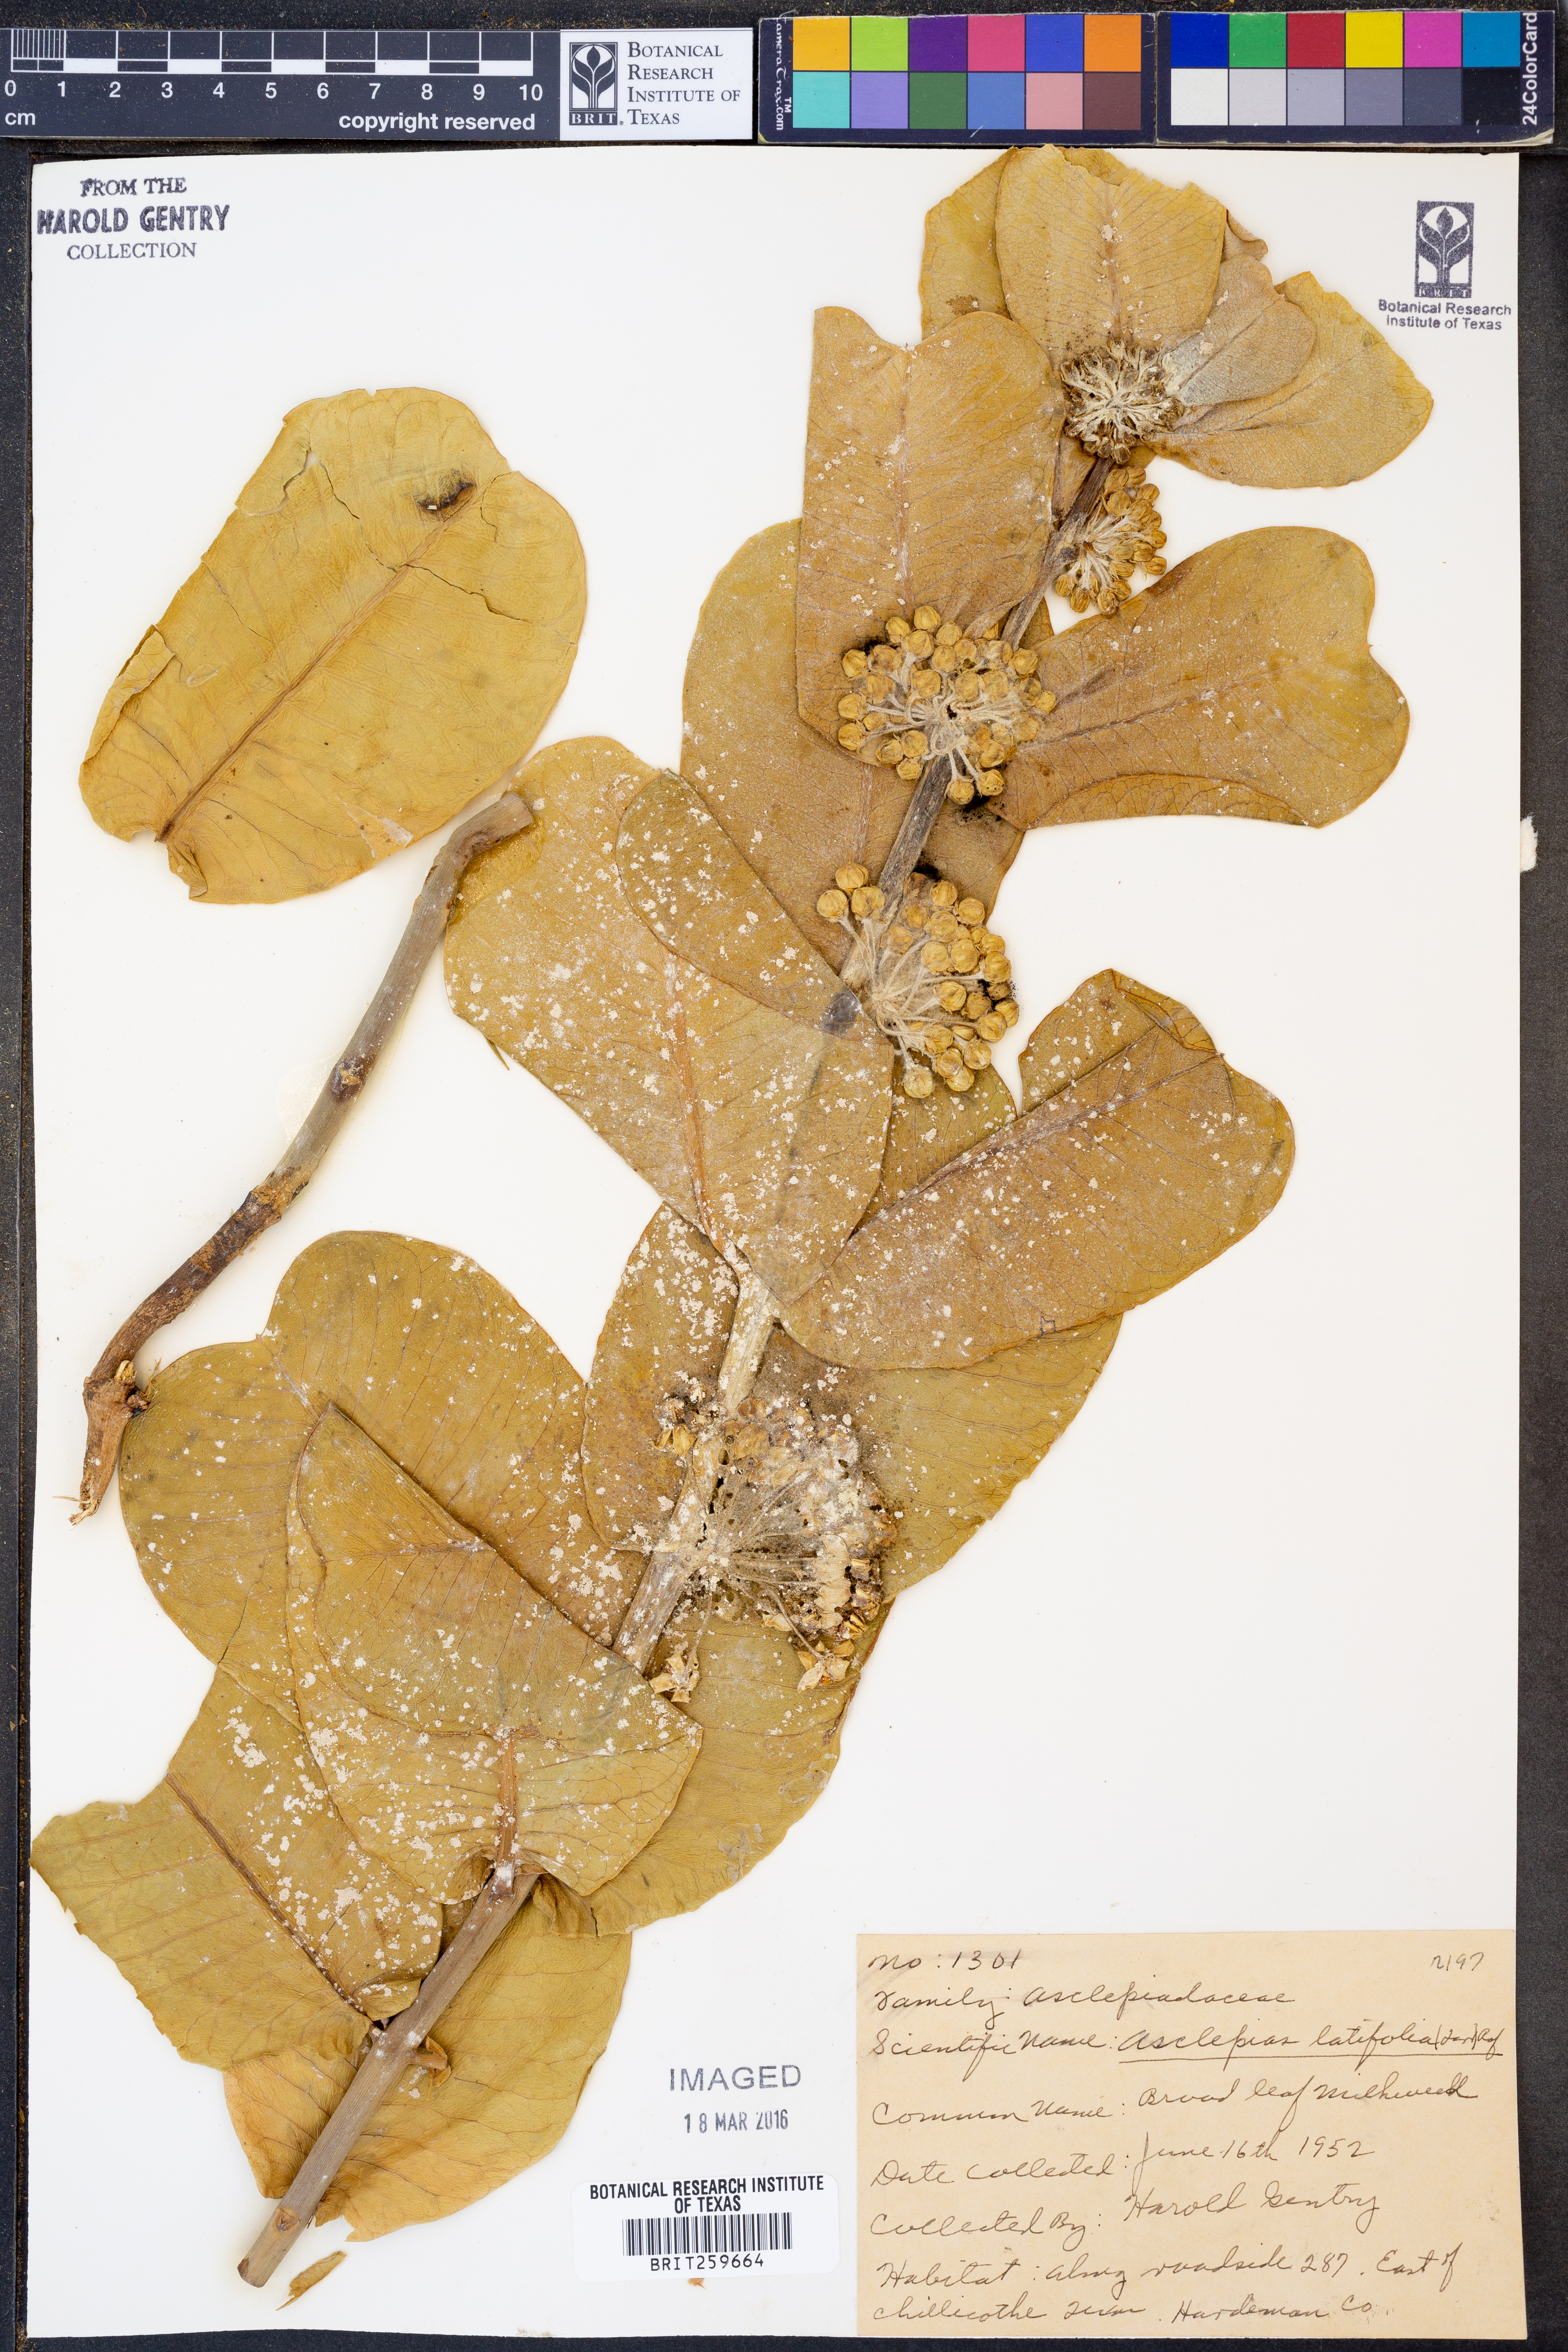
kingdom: Plantae
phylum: Tracheophyta
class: Magnoliopsida
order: Gentianales
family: Apocynaceae
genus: Asclepias
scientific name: Asclepias latifolia
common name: Broadleaf milkweed
